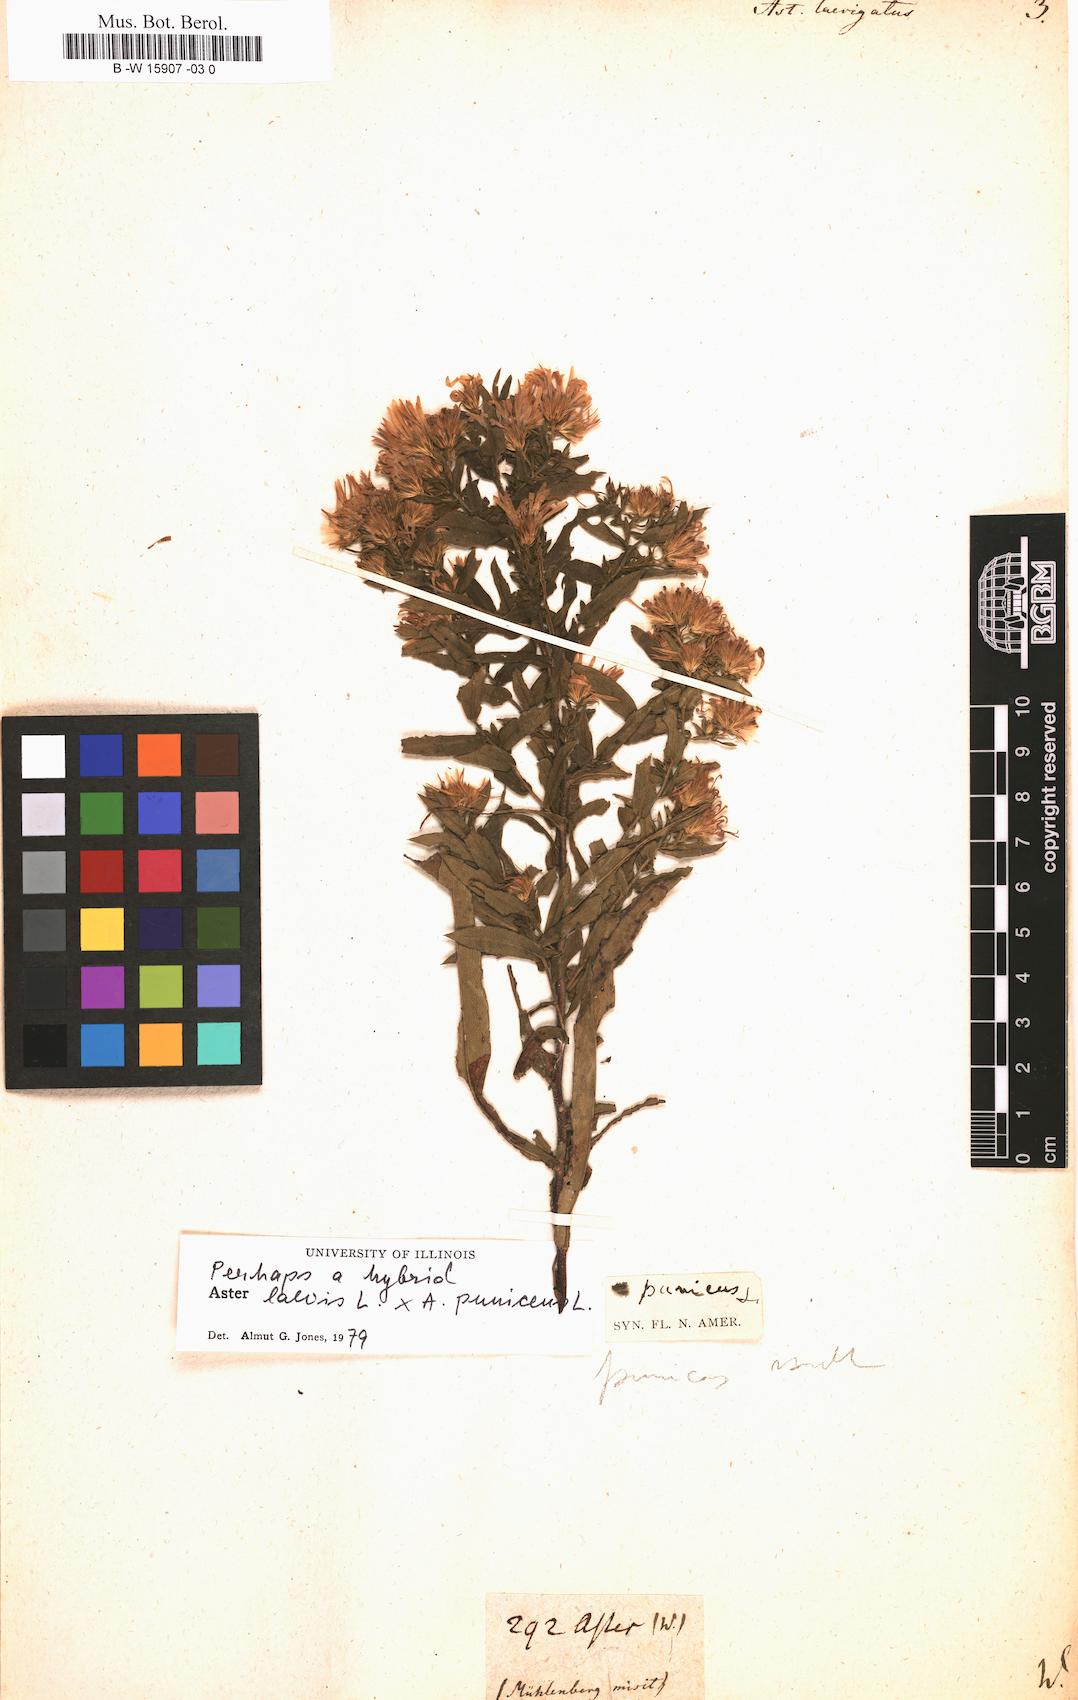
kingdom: Plantae
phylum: Tracheophyta
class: Magnoliopsida
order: Asterales
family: Asteraceae
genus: Afroaster
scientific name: Afroaster laevigatus
